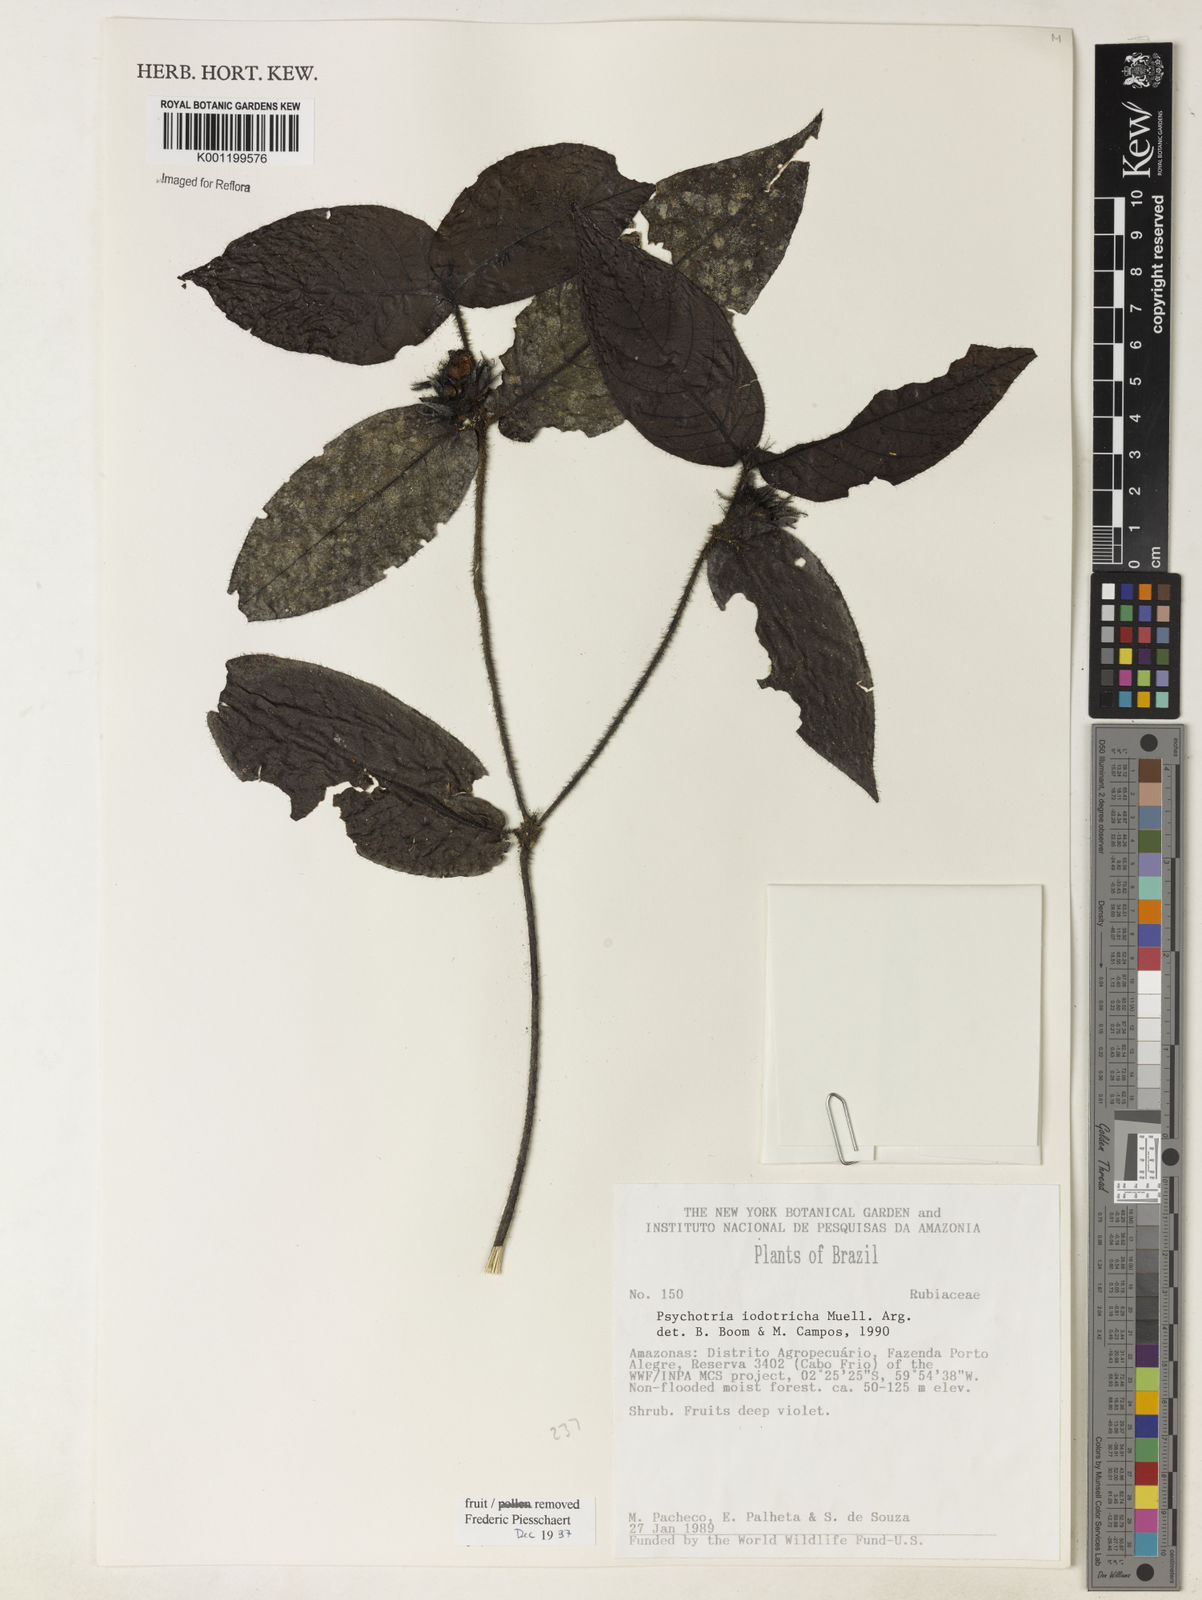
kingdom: Plantae
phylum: Tracheophyta
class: Magnoliopsida
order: Gentianales
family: Rubiaceae
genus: Psychotria
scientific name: Psychotria
